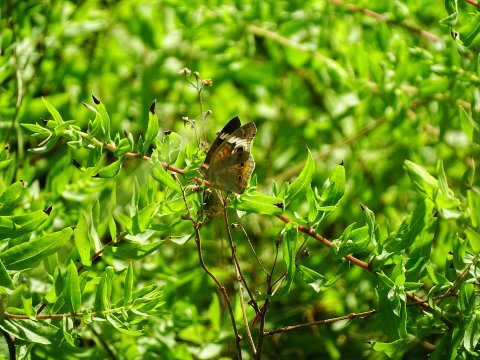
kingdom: Animalia
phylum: Arthropoda
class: Insecta
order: Lepidoptera
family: Nymphalidae
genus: Junonia
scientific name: Junonia coenia
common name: Common Buckeye
